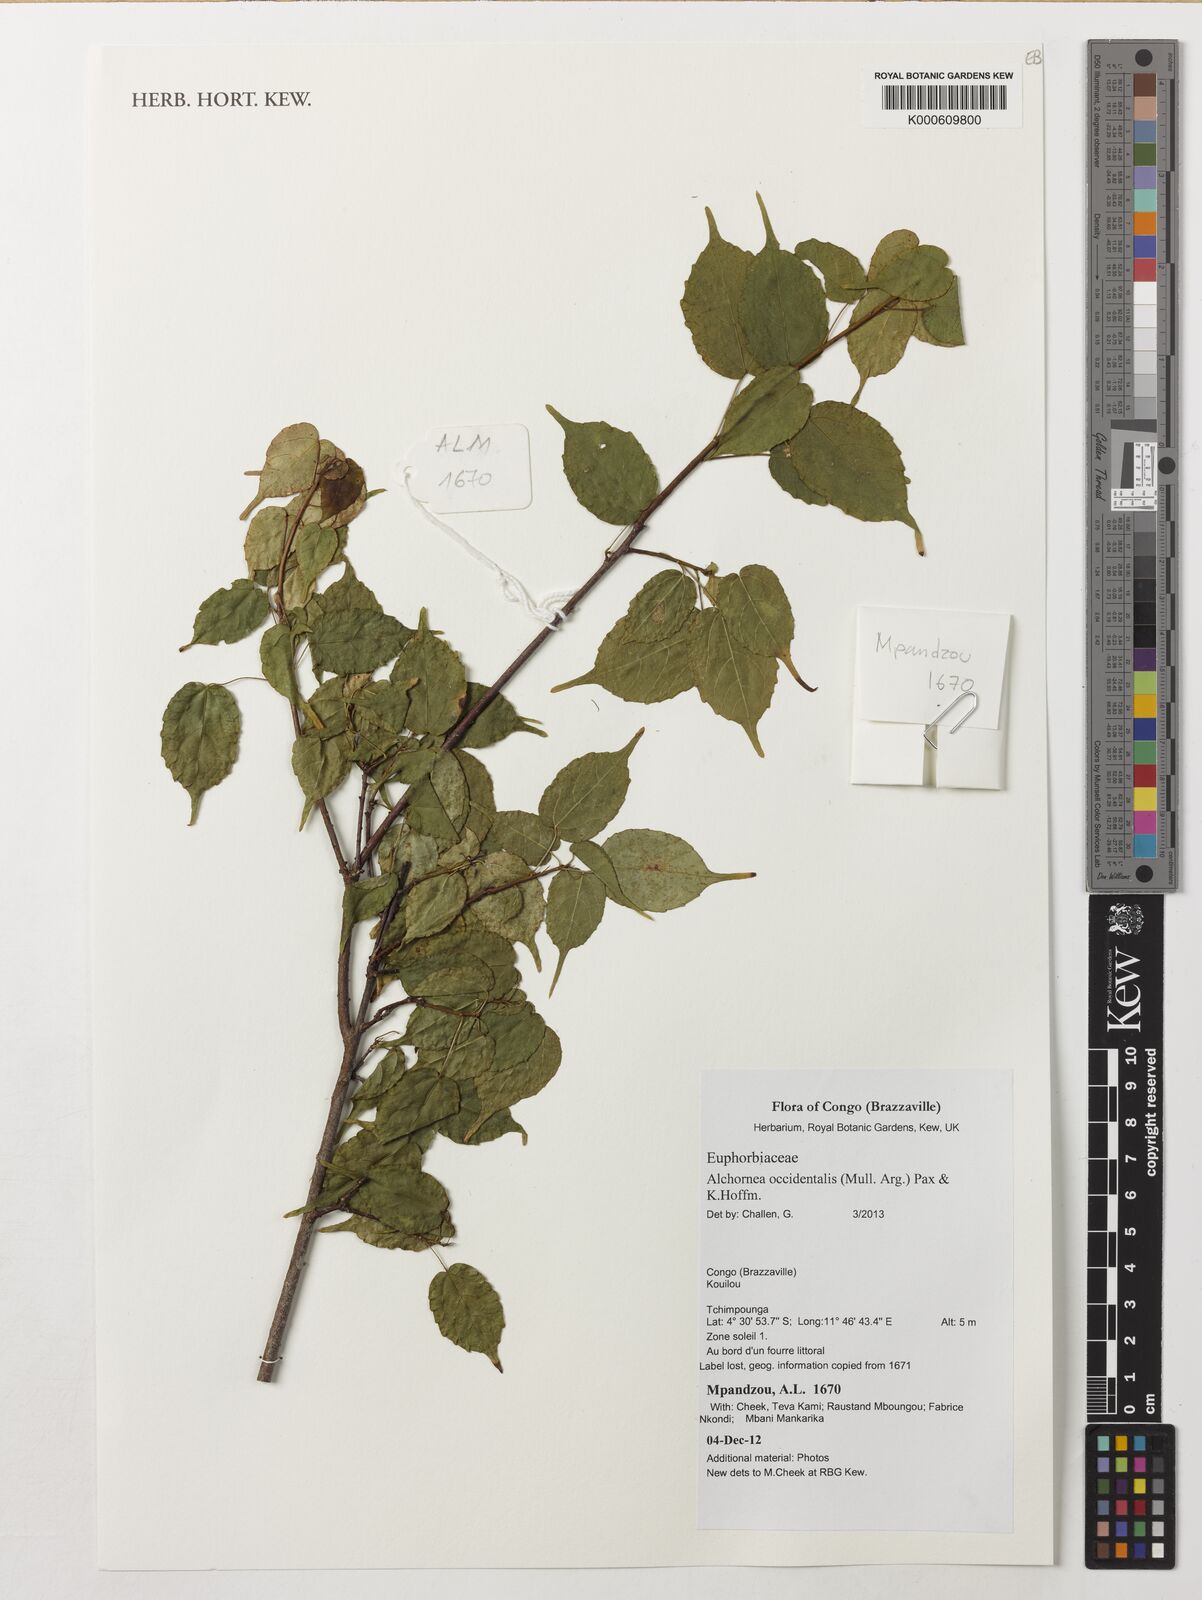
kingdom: Plantae
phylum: Tracheophyta
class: Magnoliopsida
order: Malpighiales
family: Euphorbiaceae
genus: Alchornea
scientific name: Alchornea occidentalis
